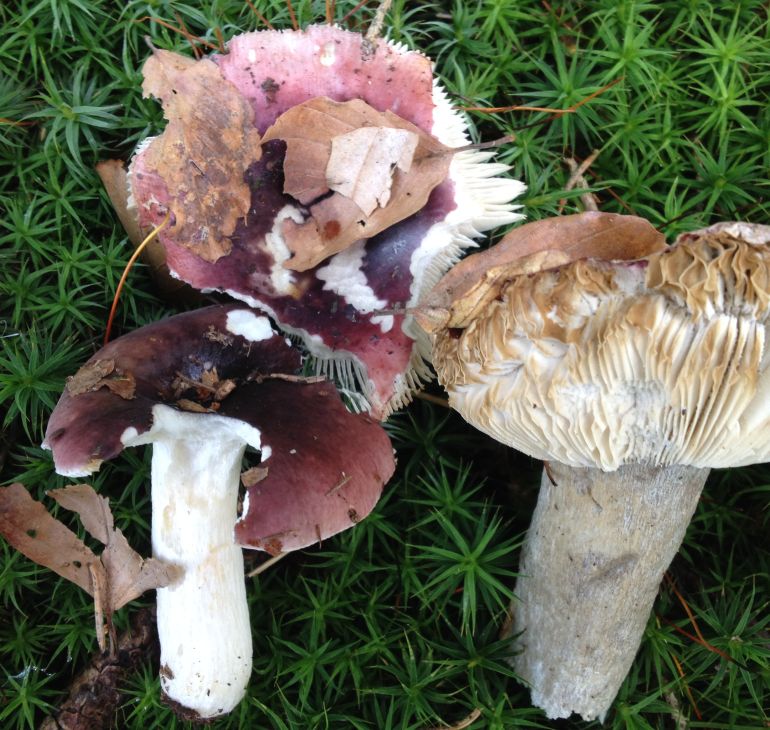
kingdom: Fungi
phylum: Basidiomycota
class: Agaricomycetes
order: Russulales
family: Russulaceae
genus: Russula
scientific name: Russula atropurpurea
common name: purpurbroget skørhat
